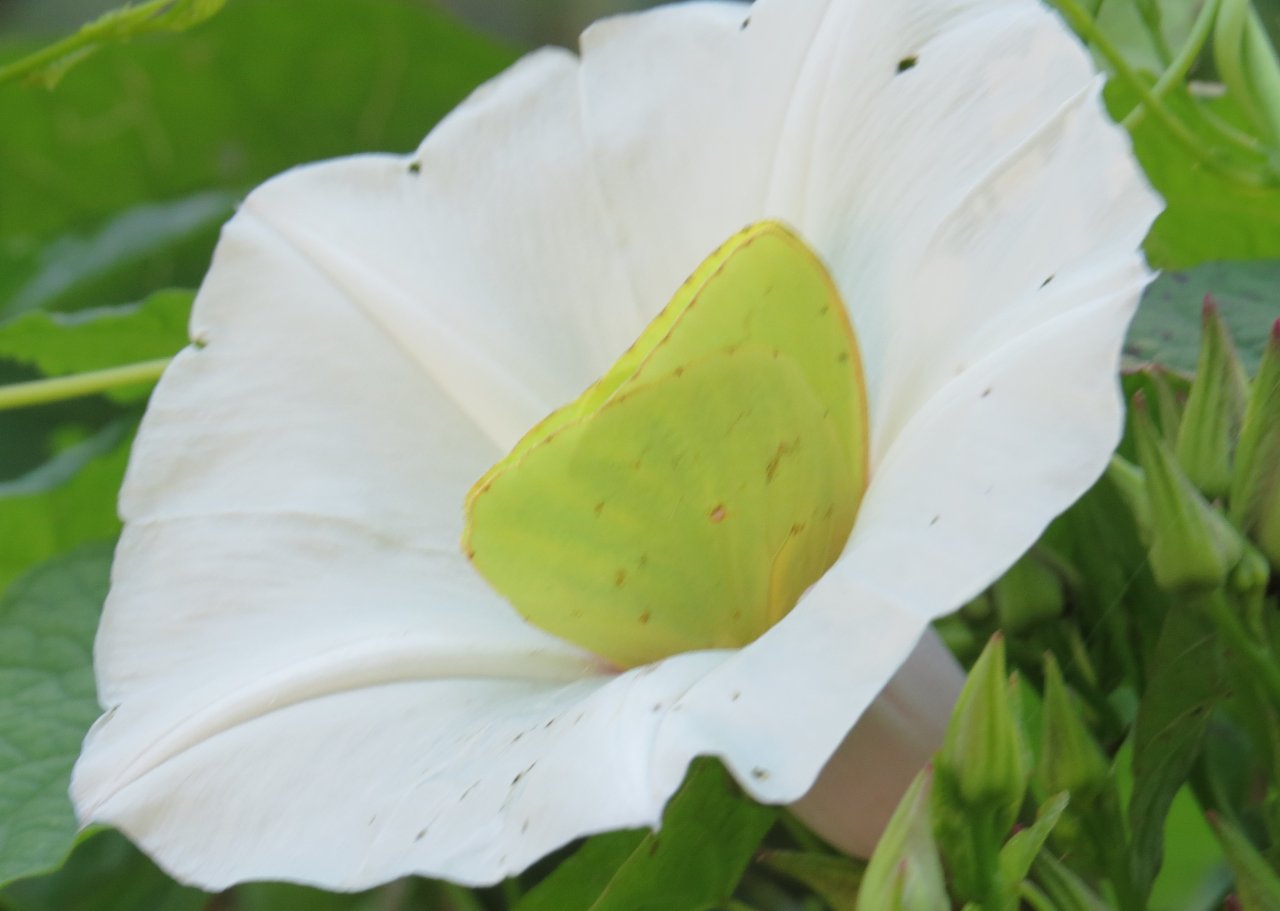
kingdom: Animalia
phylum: Arthropoda
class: Insecta
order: Lepidoptera
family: Pieridae
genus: Phoebis
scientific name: Phoebis sennae
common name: Cloudless Sulphur
